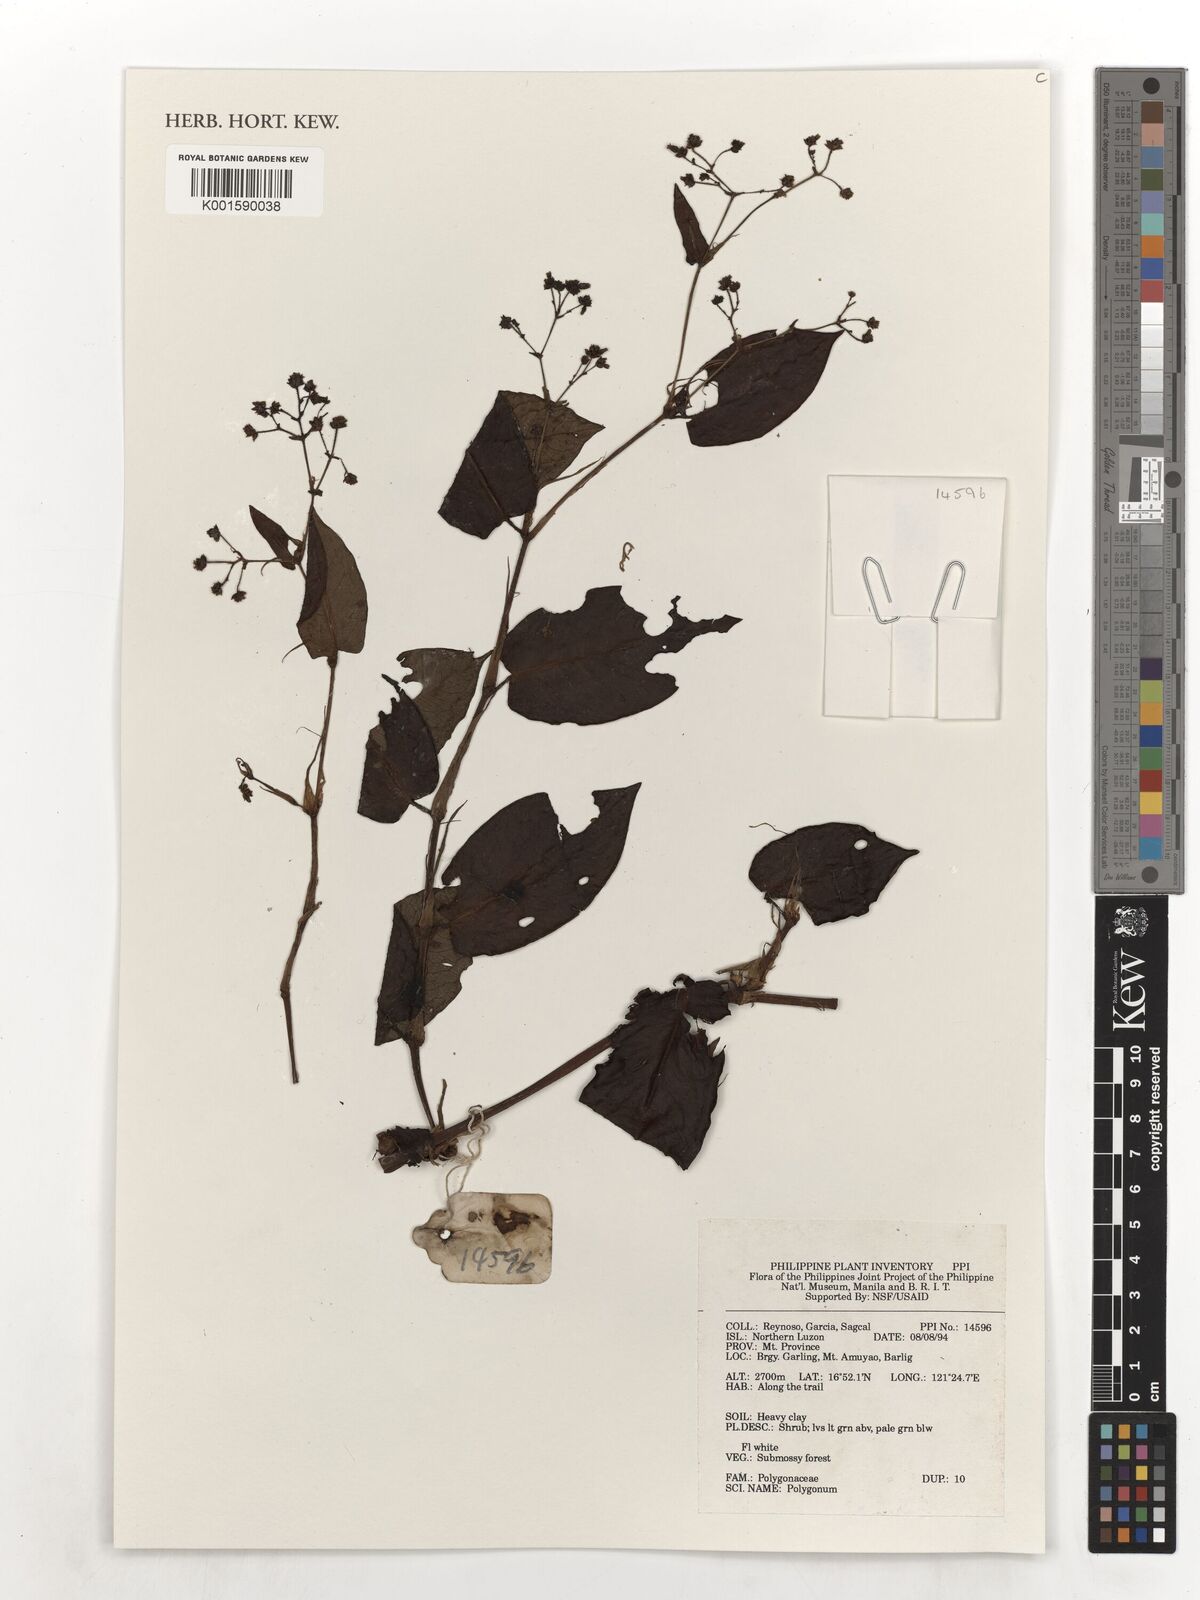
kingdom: Plantae
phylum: Tracheophyta
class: Magnoliopsida
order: Caryophyllales
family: Polygonaceae
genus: Polygonum
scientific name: Polygonum
